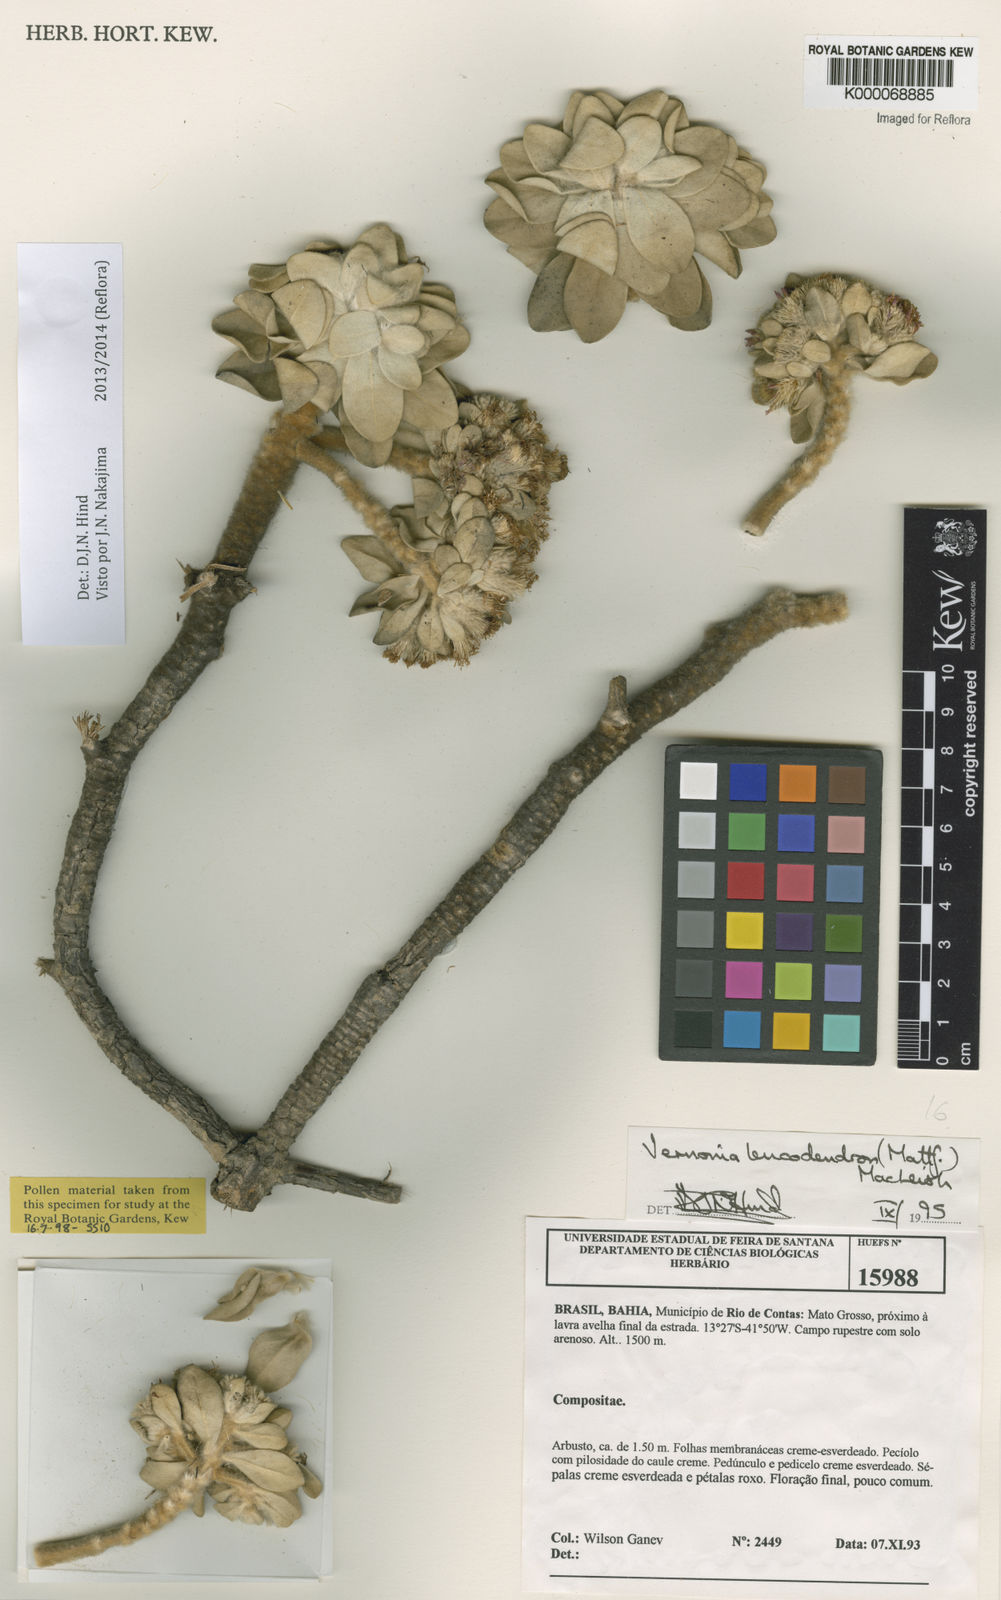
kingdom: Plantae
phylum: Tracheophyta
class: Magnoliopsida
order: Asterales
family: Asteraceae
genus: Lychnophorella
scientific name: Lychnophorella leucodendron
